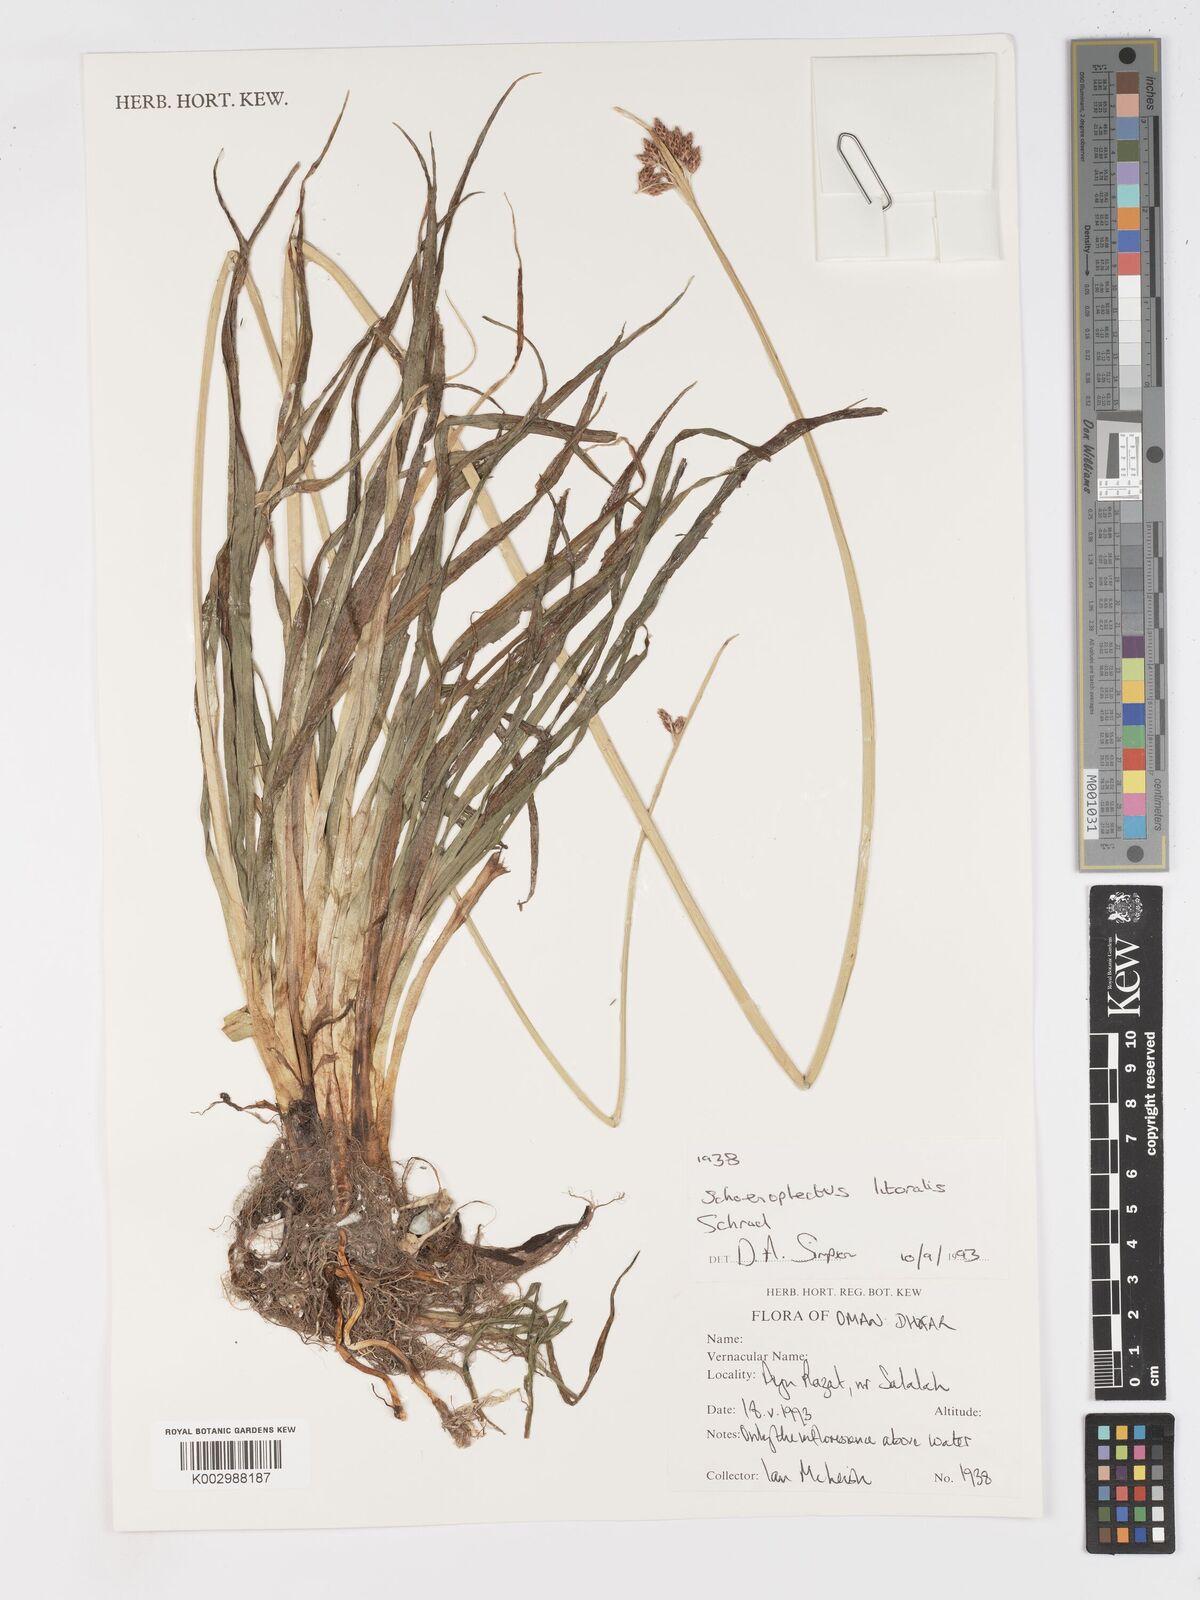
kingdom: Plantae
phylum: Tracheophyta
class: Liliopsida
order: Poales
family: Cyperaceae
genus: Schoenoplectus
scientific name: Schoenoplectus litoralis
